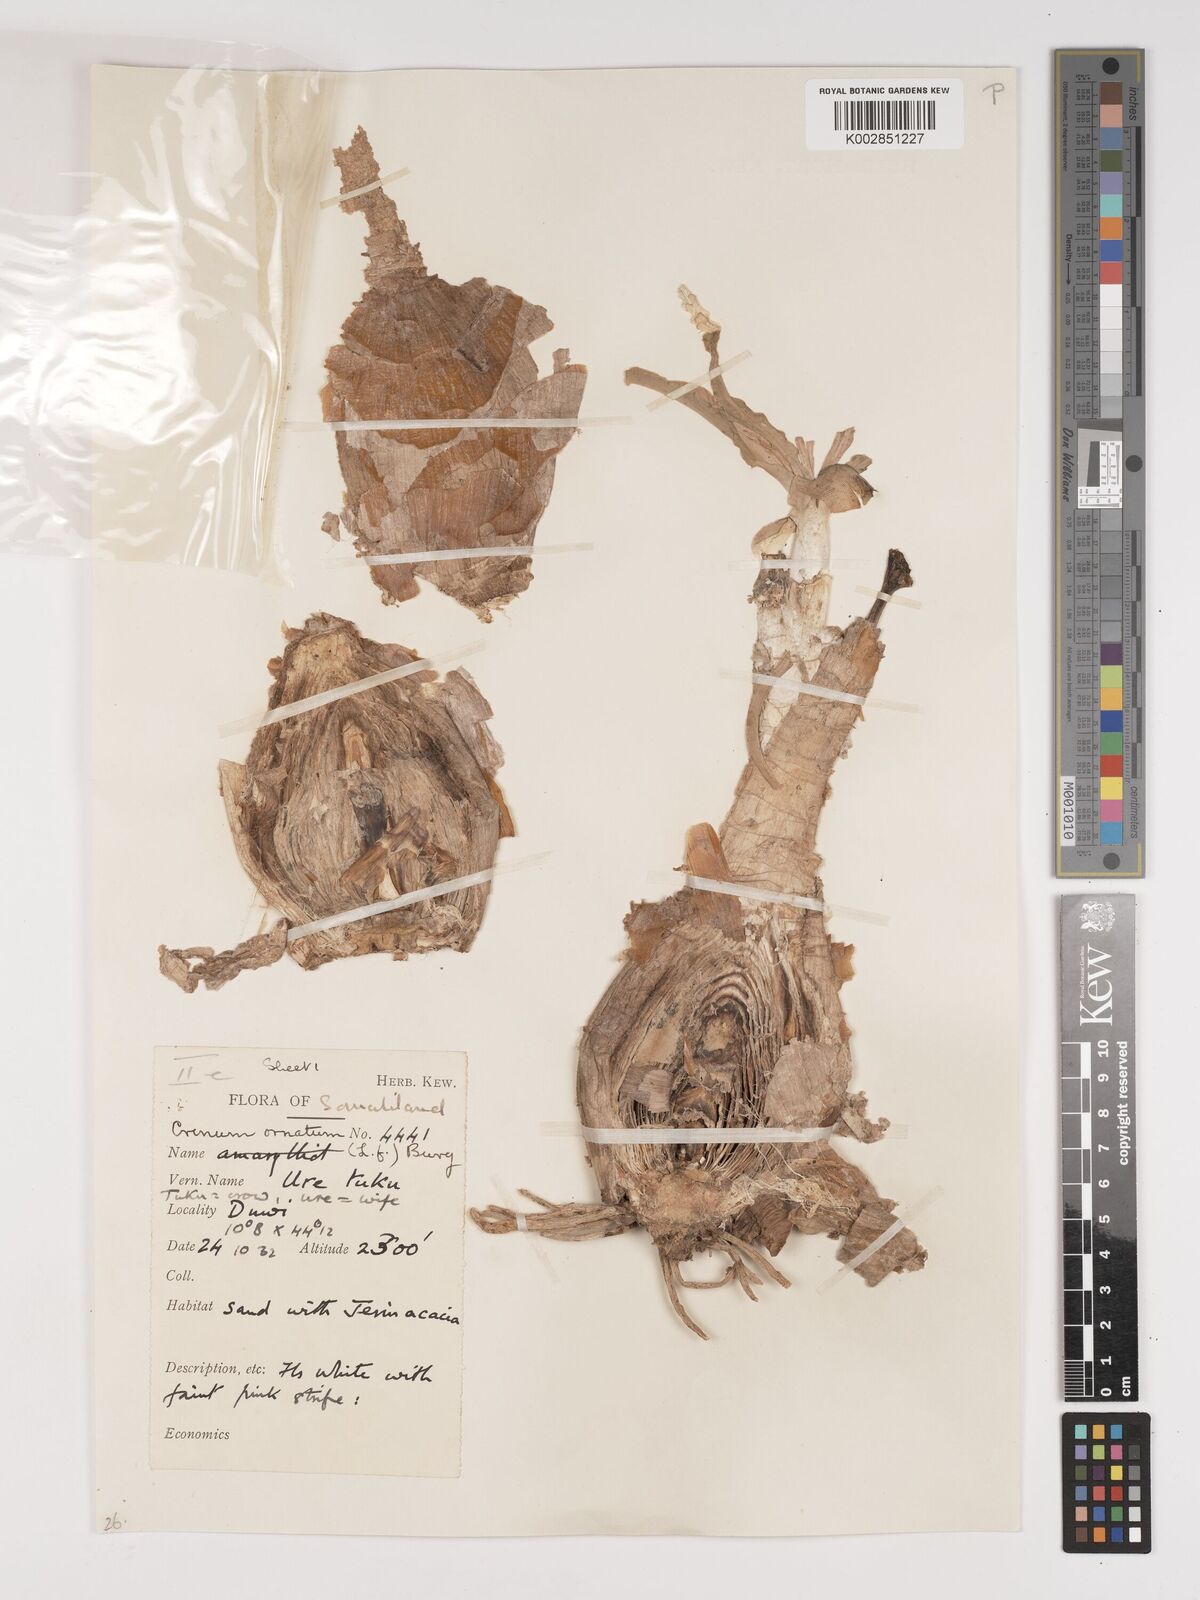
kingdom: Plantae
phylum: Tracheophyta
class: Liliopsida
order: Asparagales
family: Amaryllidaceae
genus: Crinum
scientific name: Crinum abyssinicum
